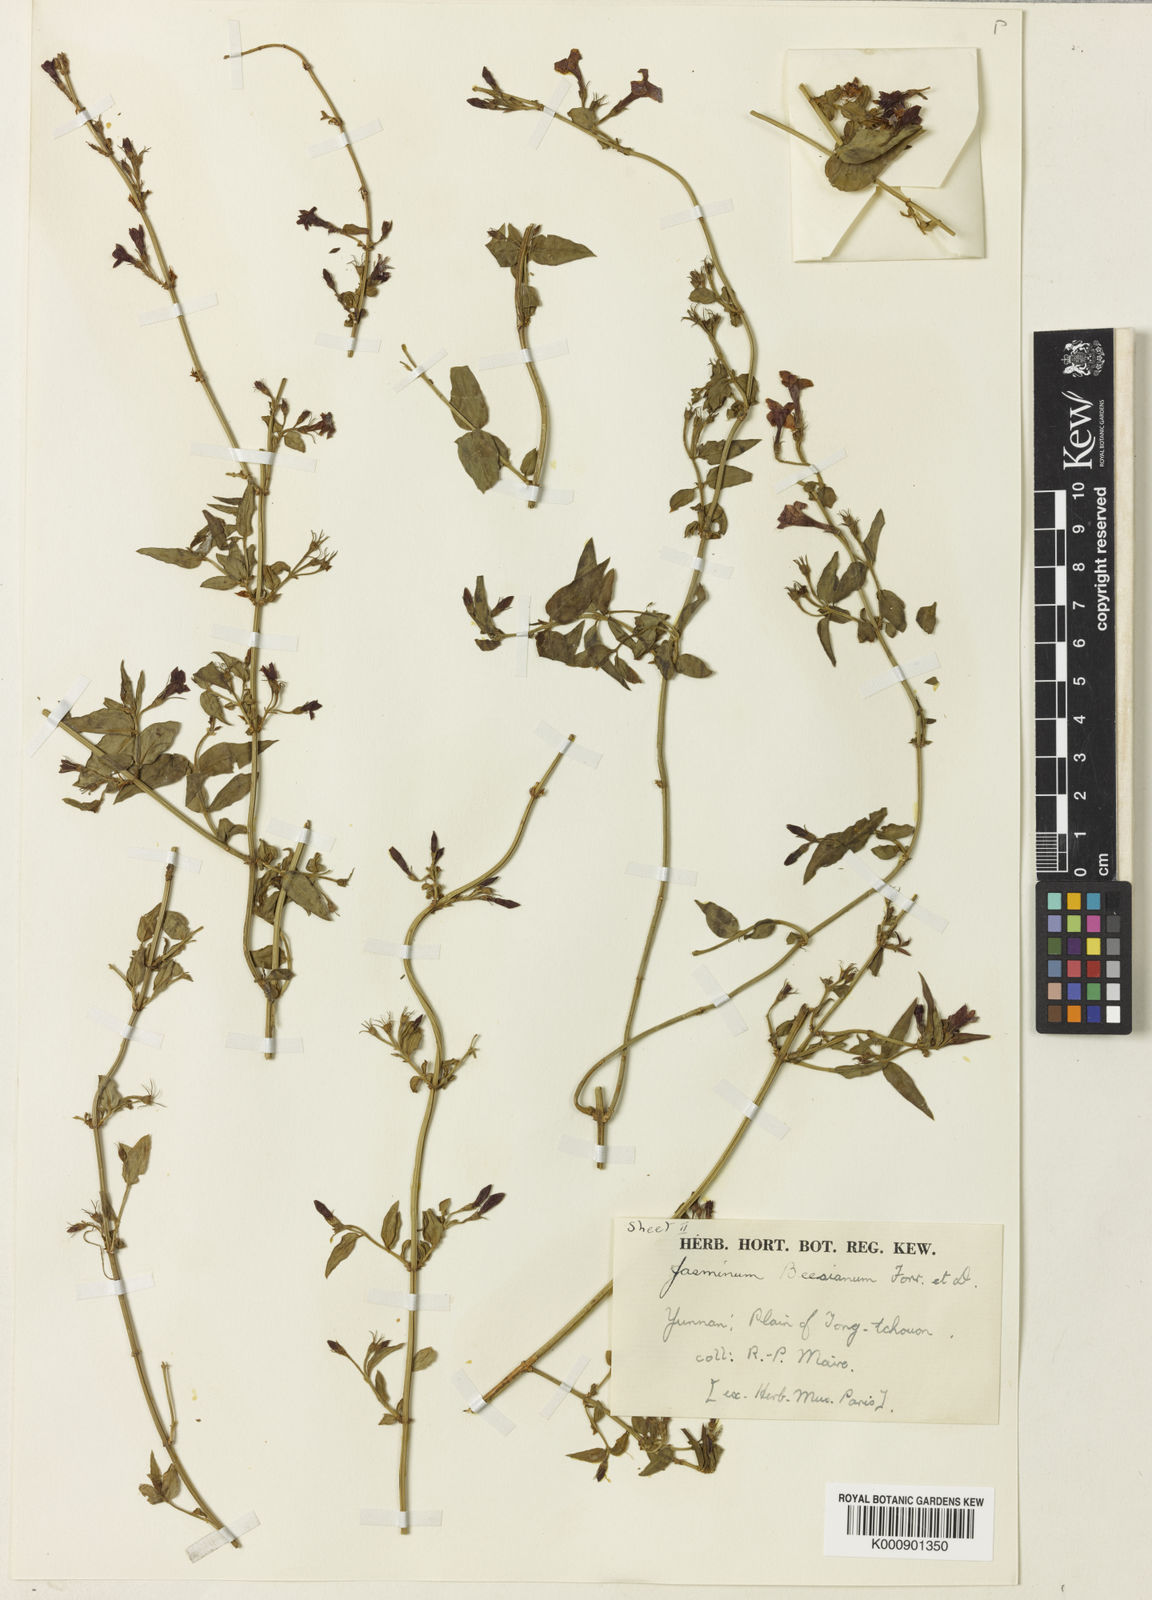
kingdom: Plantae
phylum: Tracheophyta
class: Magnoliopsida
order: Lamiales
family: Oleaceae
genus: Jasminum
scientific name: Jasminum beesianum
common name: Red jasmine
